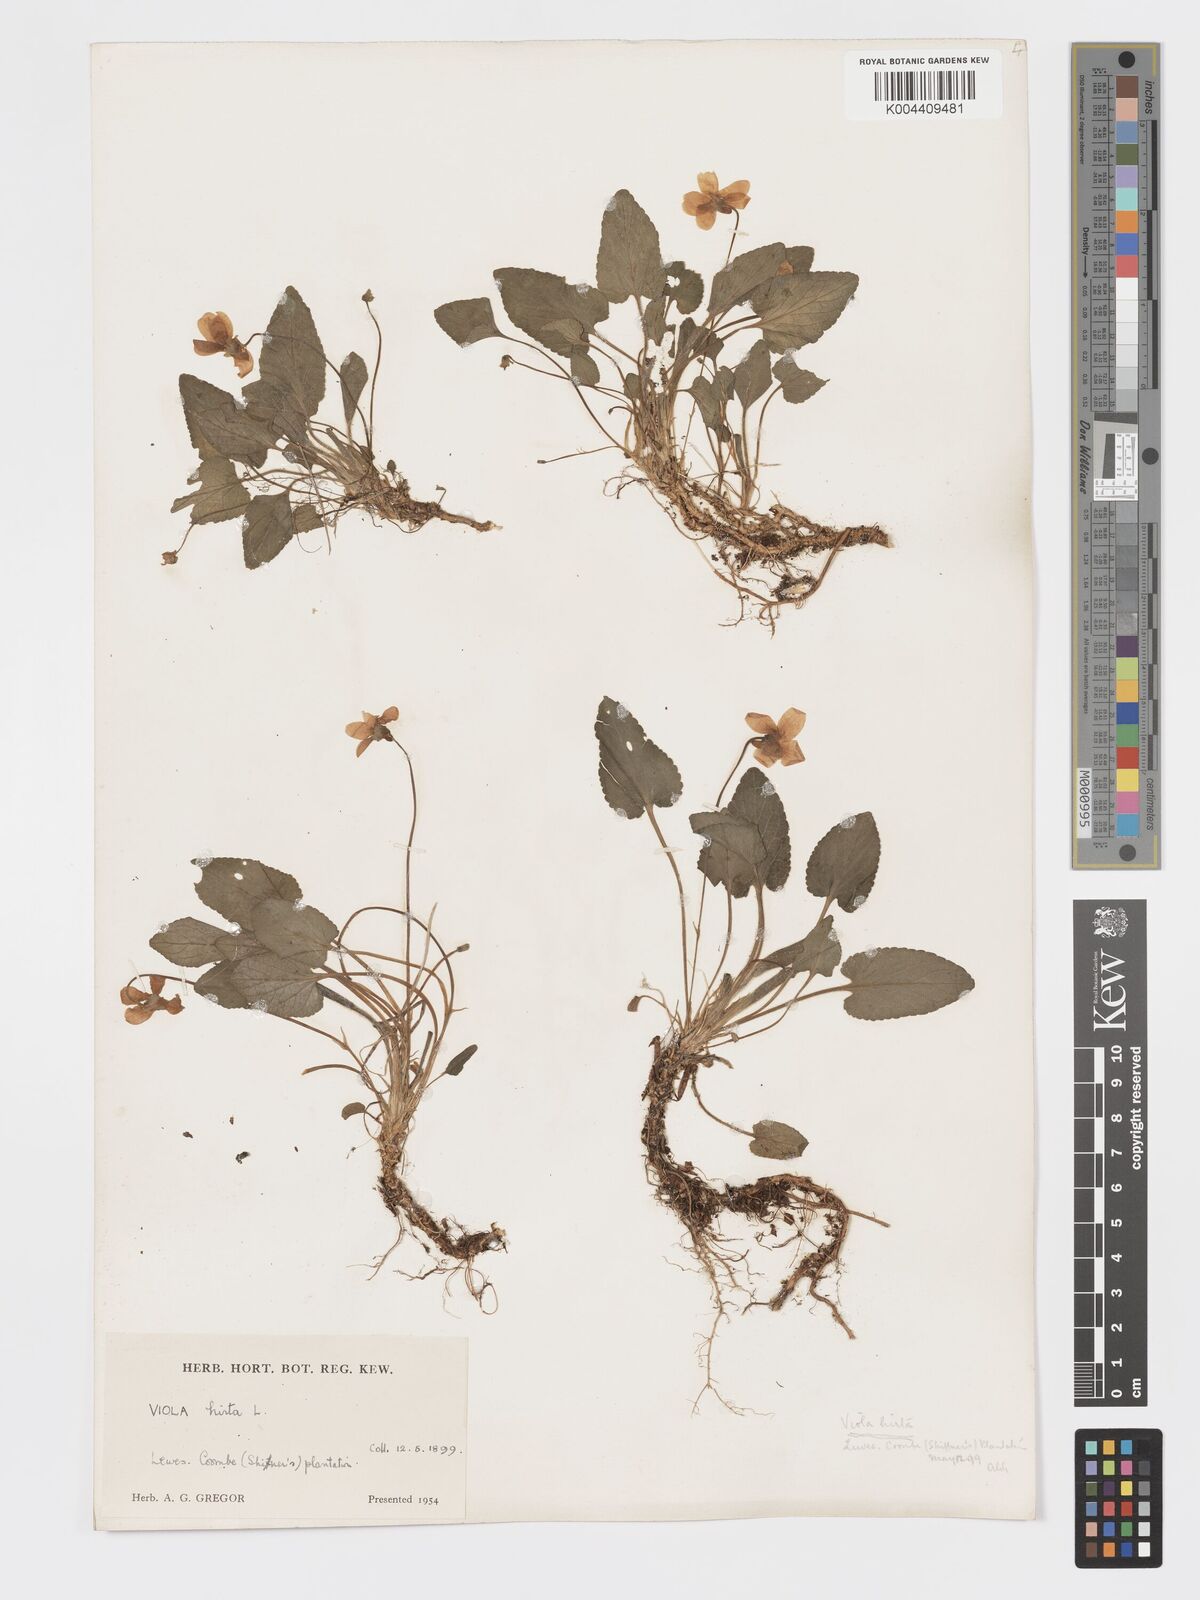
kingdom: Plantae
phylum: Tracheophyta
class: Magnoliopsida
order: Malpighiales
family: Violaceae
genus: Viola
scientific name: Viola
